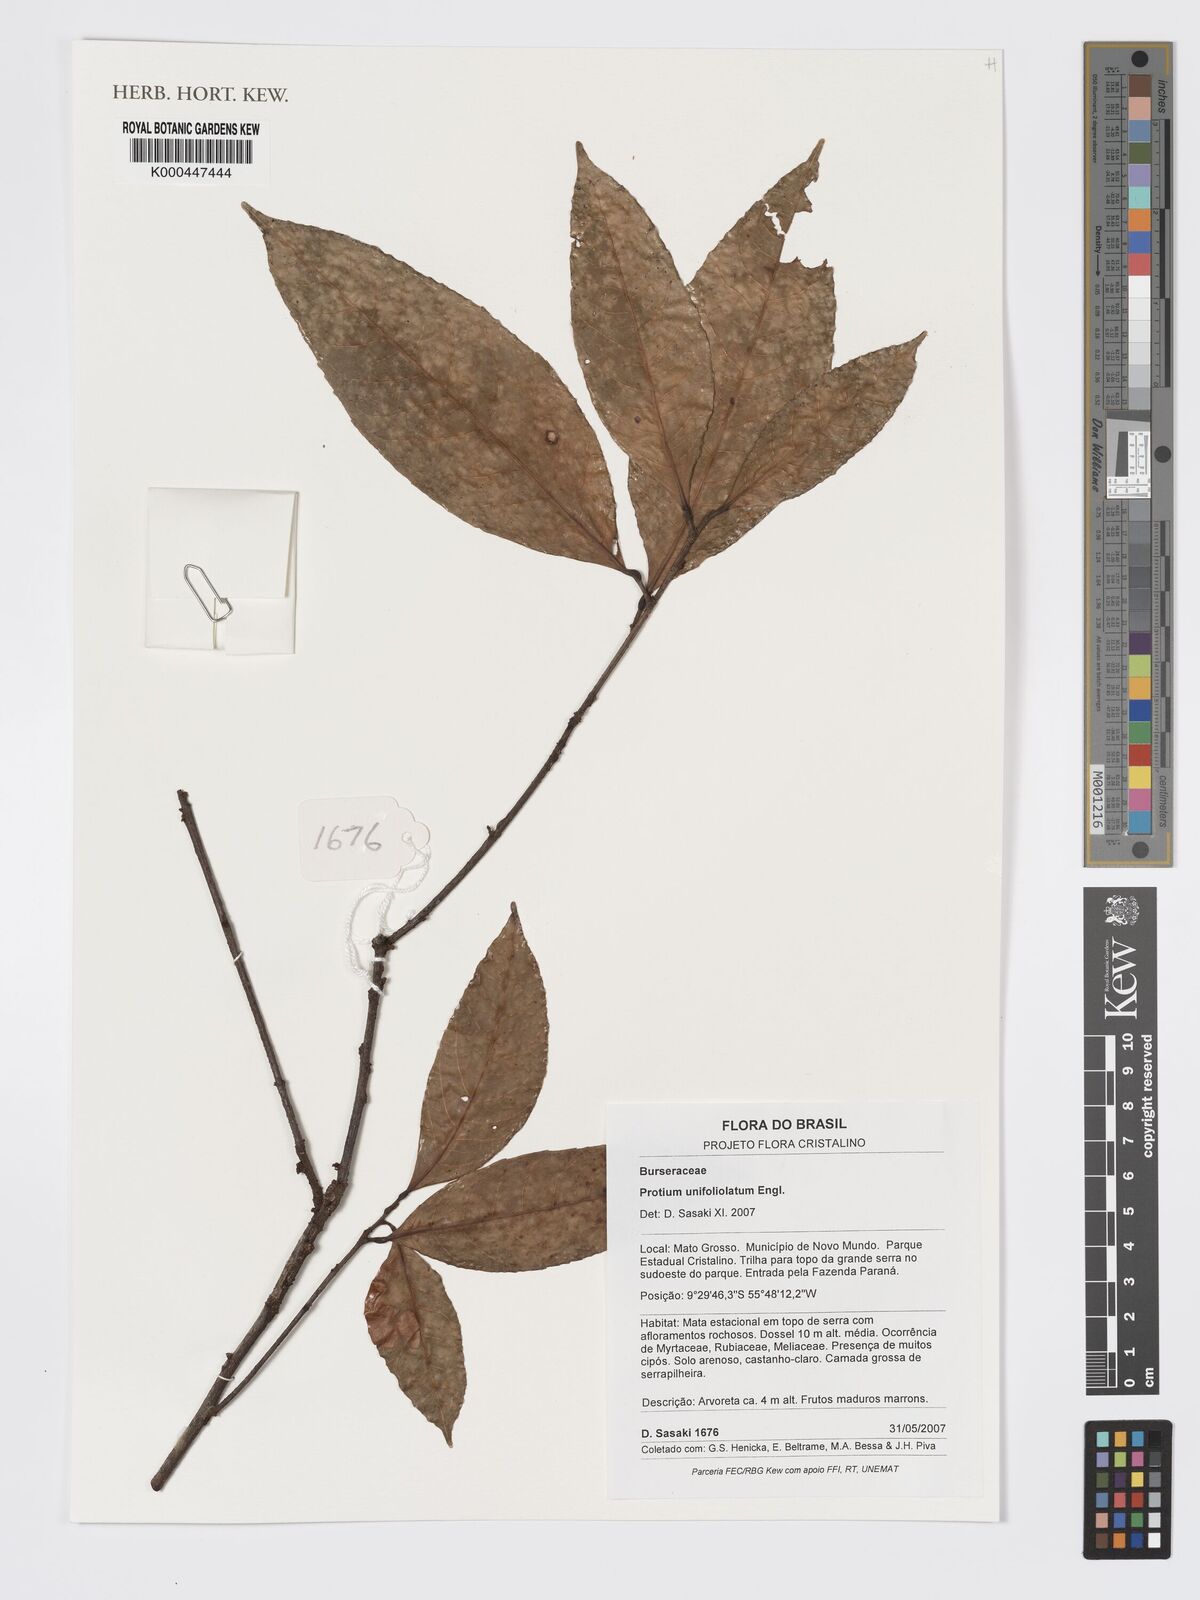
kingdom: Plantae
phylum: Tracheophyta
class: Magnoliopsida
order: Sapindales
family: Burseraceae
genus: Protium
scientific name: Protium unifoliolatum
